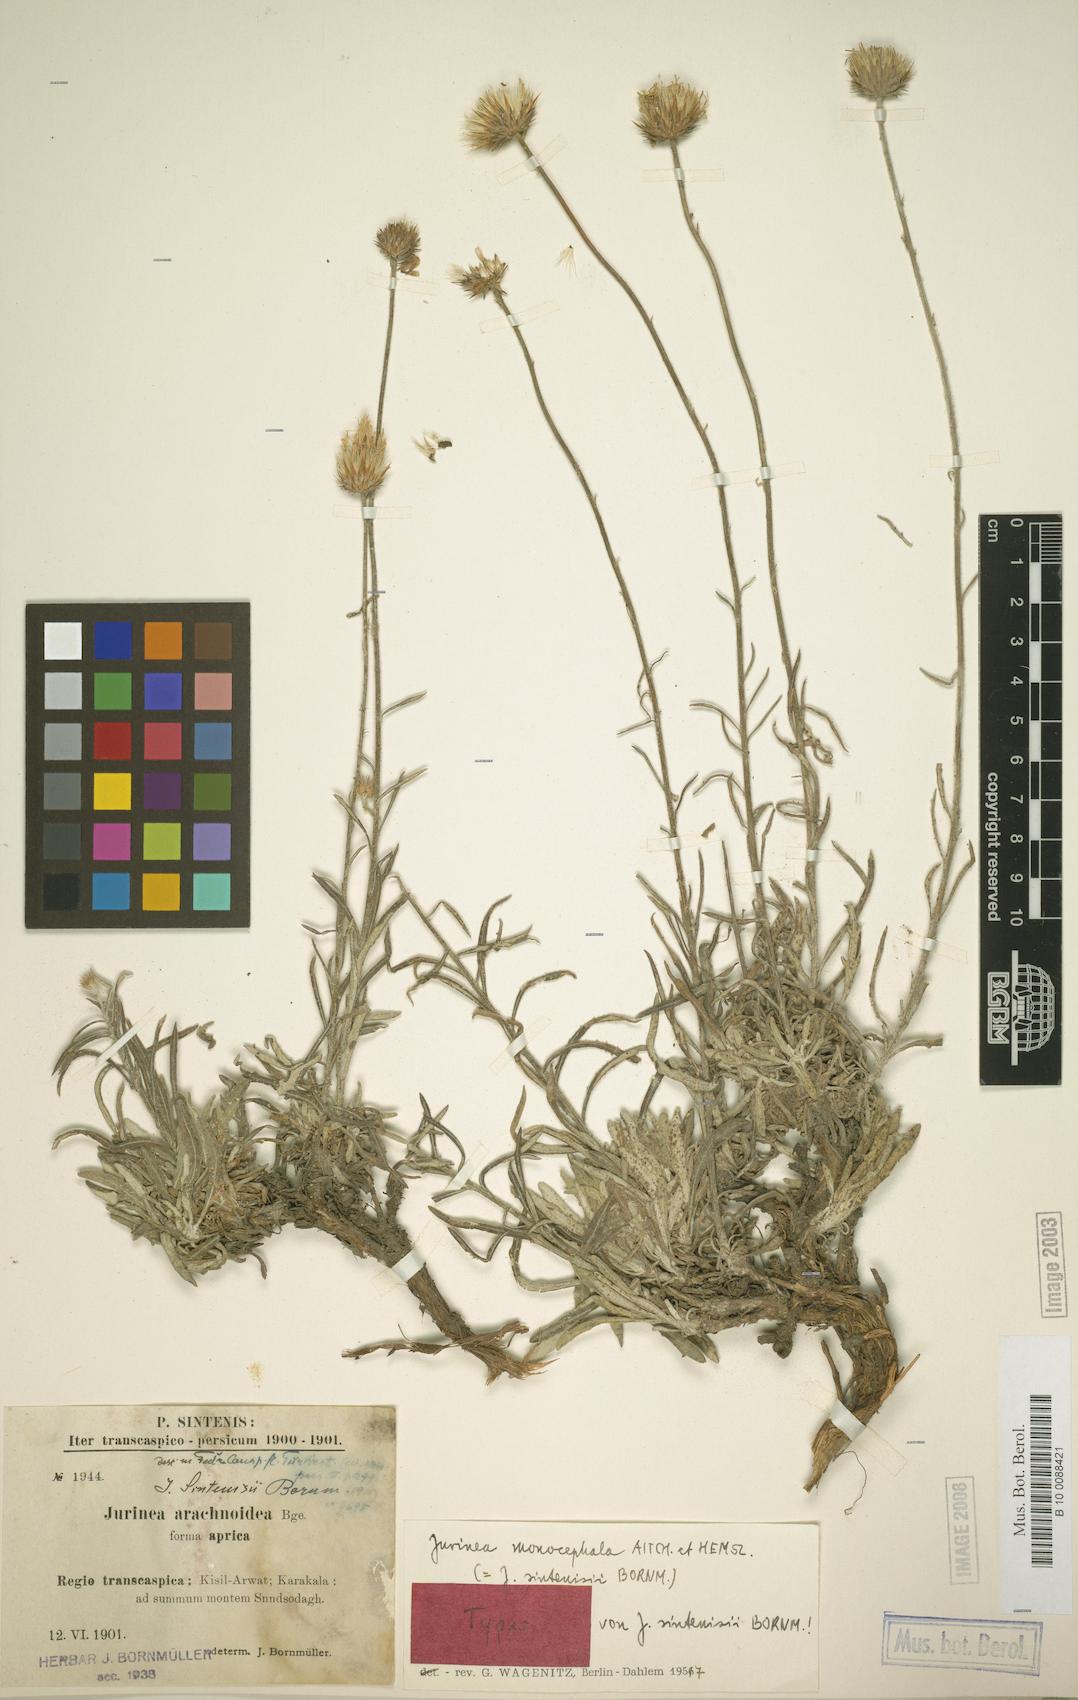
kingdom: Plantae
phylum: Tracheophyta
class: Magnoliopsida
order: Asterales
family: Asteraceae
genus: Jurinea
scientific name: Jurinea monocephala
